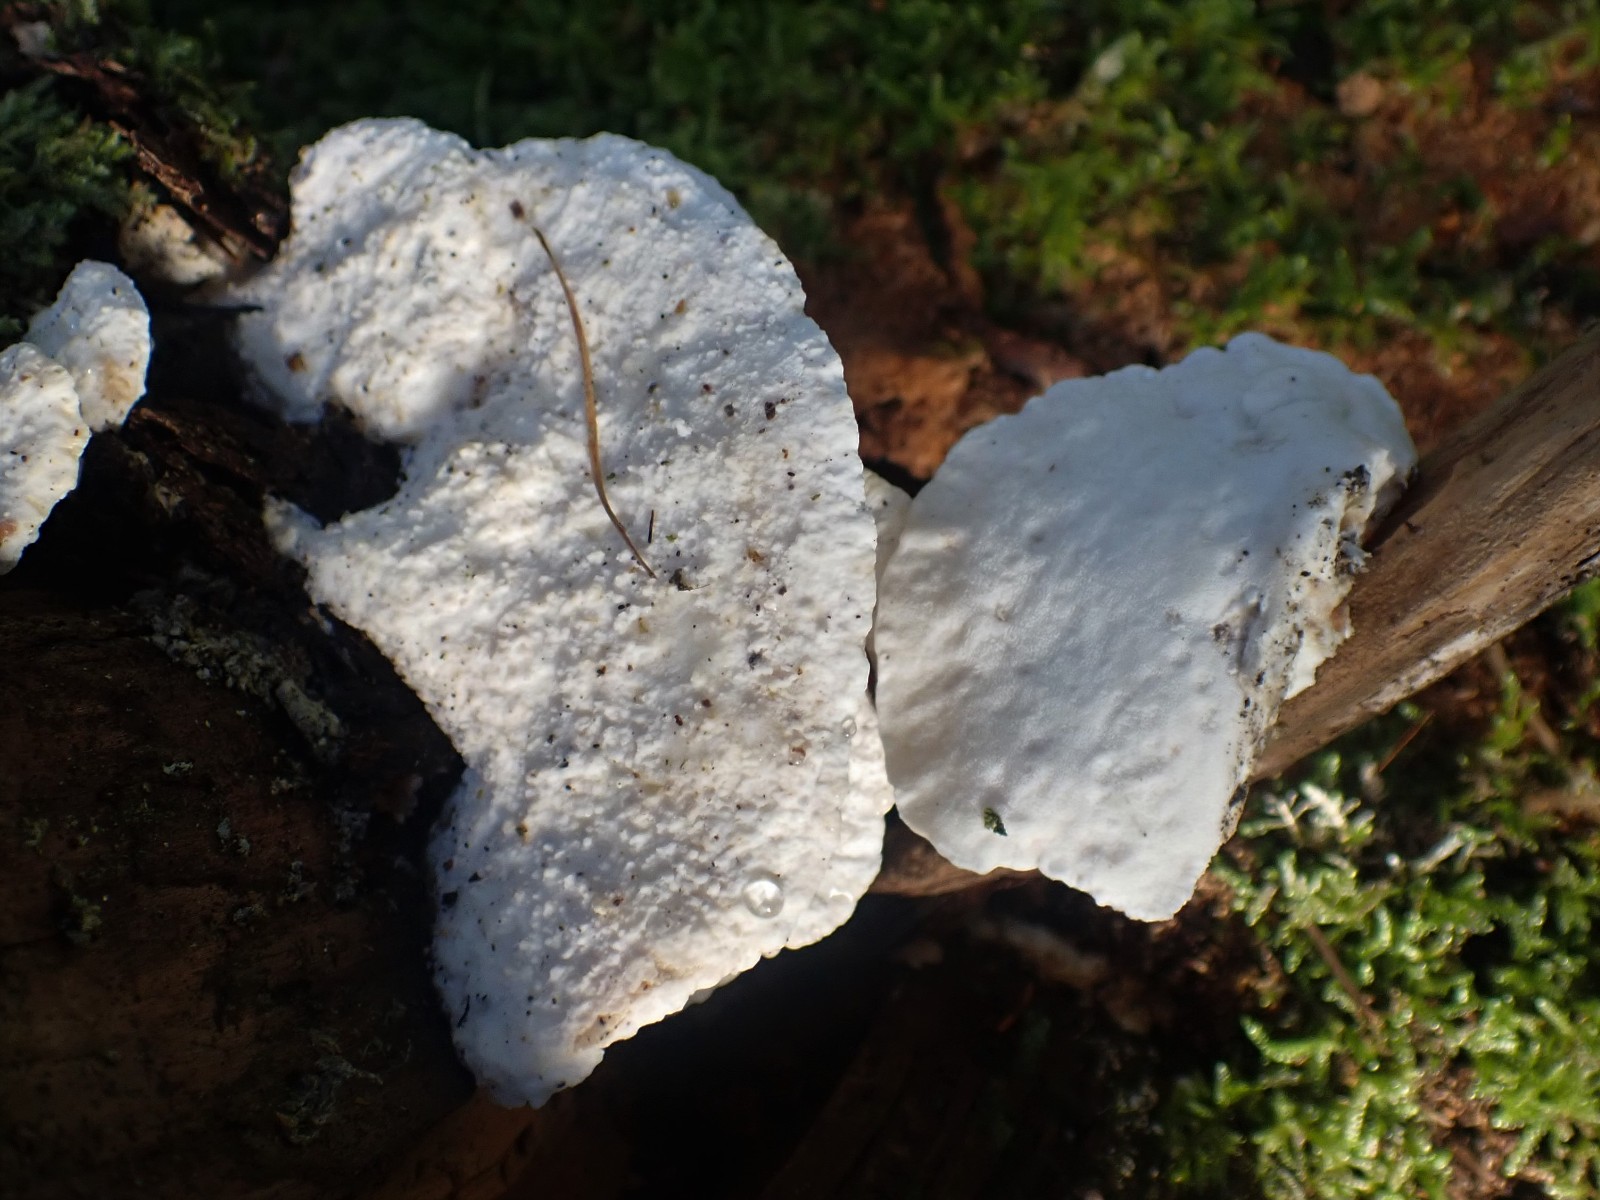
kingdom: Fungi
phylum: Basidiomycota
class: Agaricomycetes
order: Polyporales
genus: Amaropostia
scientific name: Amaropostia stiptica
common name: bitter kødporesvamp
